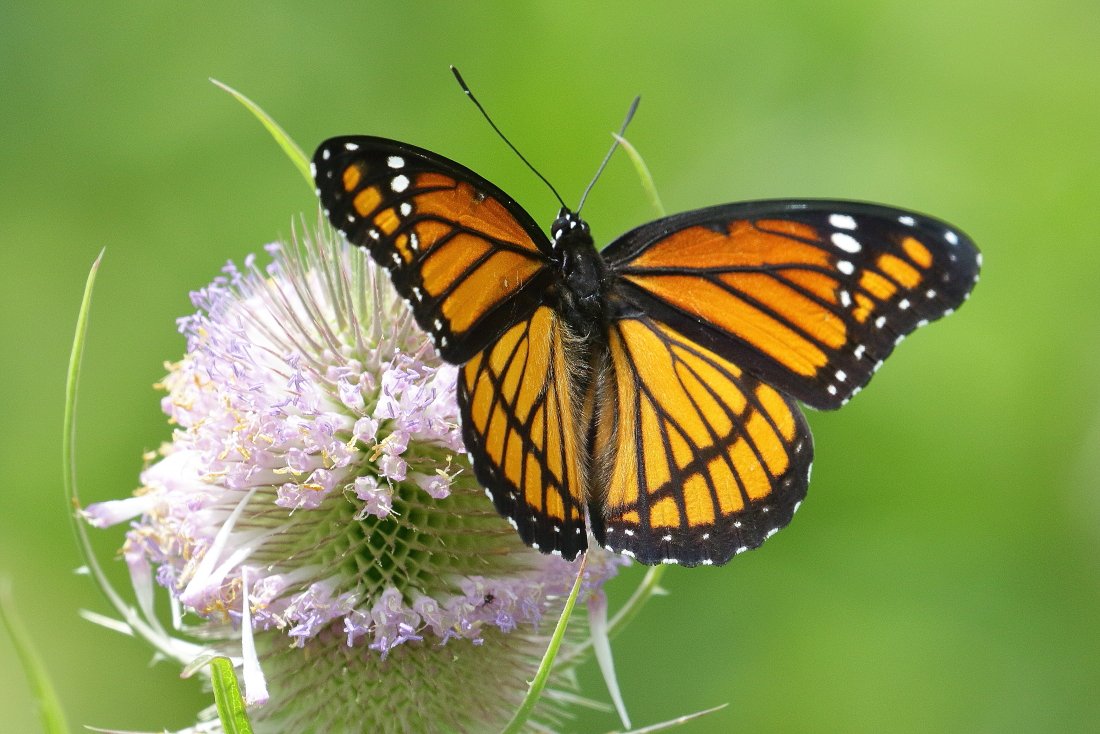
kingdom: Animalia
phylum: Arthropoda
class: Insecta
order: Lepidoptera
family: Nymphalidae
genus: Limenitis
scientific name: Limenitis archippus
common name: Viceroy
